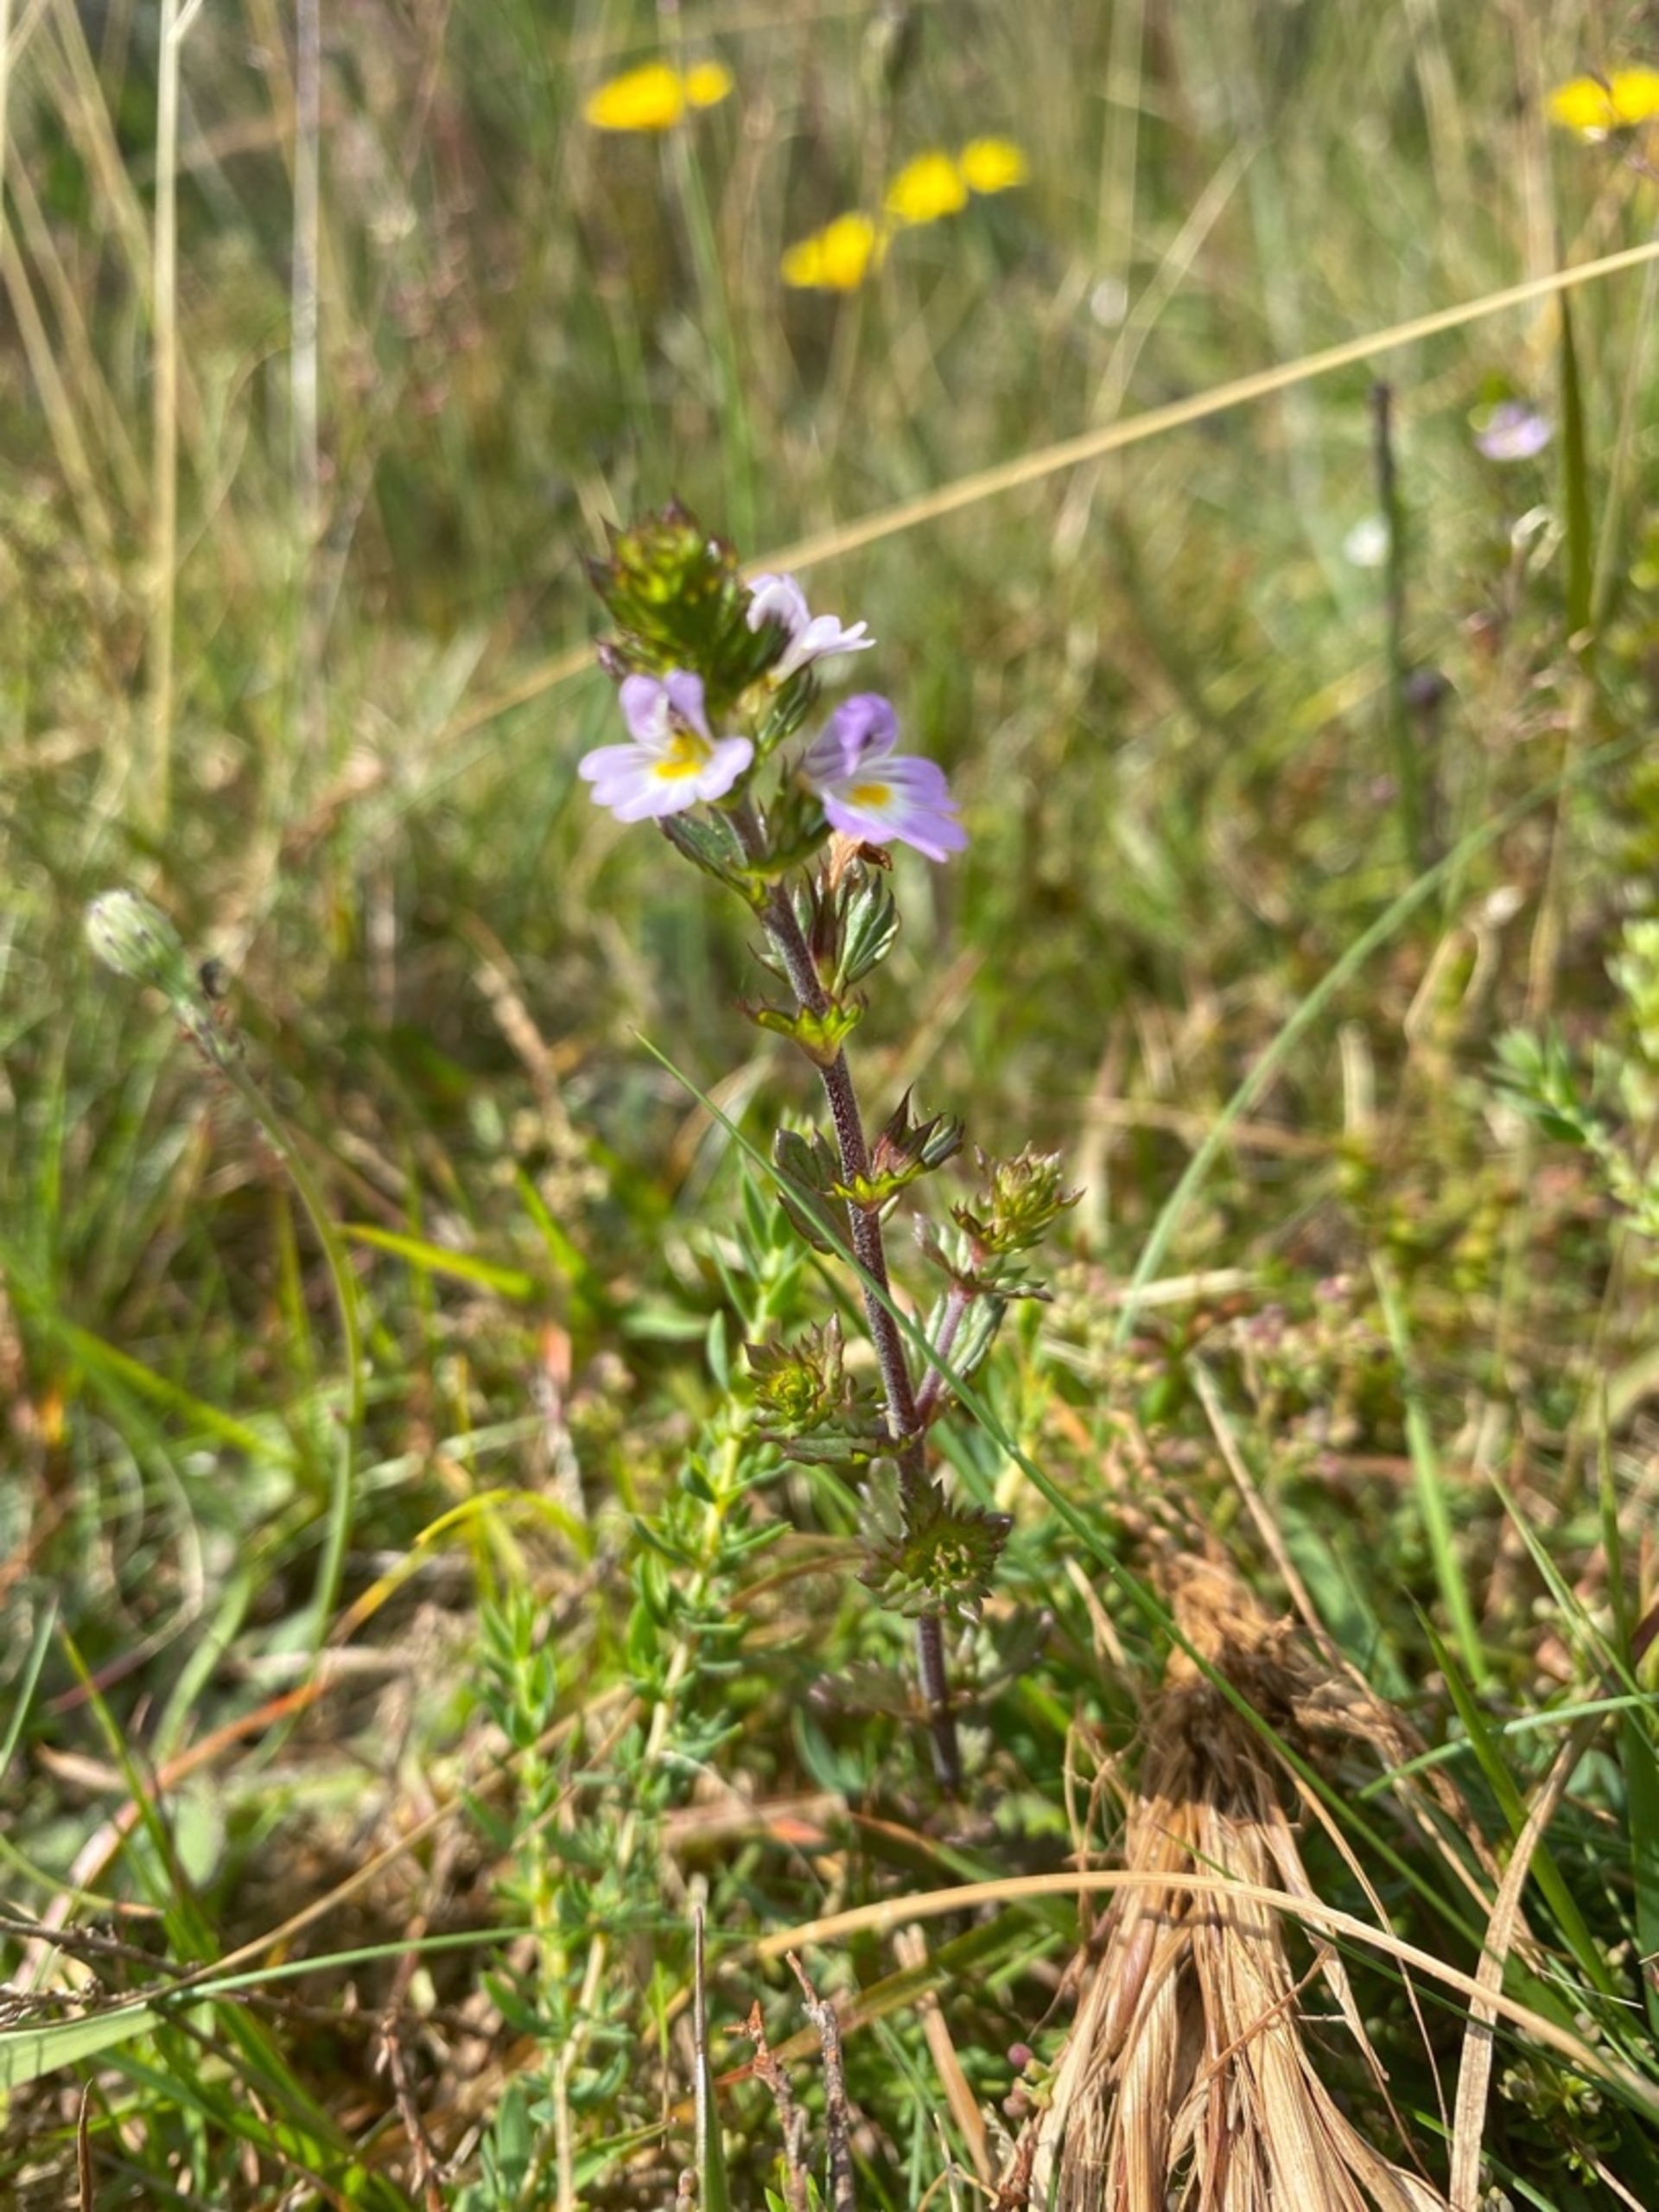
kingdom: Plantae
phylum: Tracheophyta
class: Magnoliopsida
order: Lamiales
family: Orobanchaceae
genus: Euphrasia
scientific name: Euphrasia stricta
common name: Spids øjentrøst
